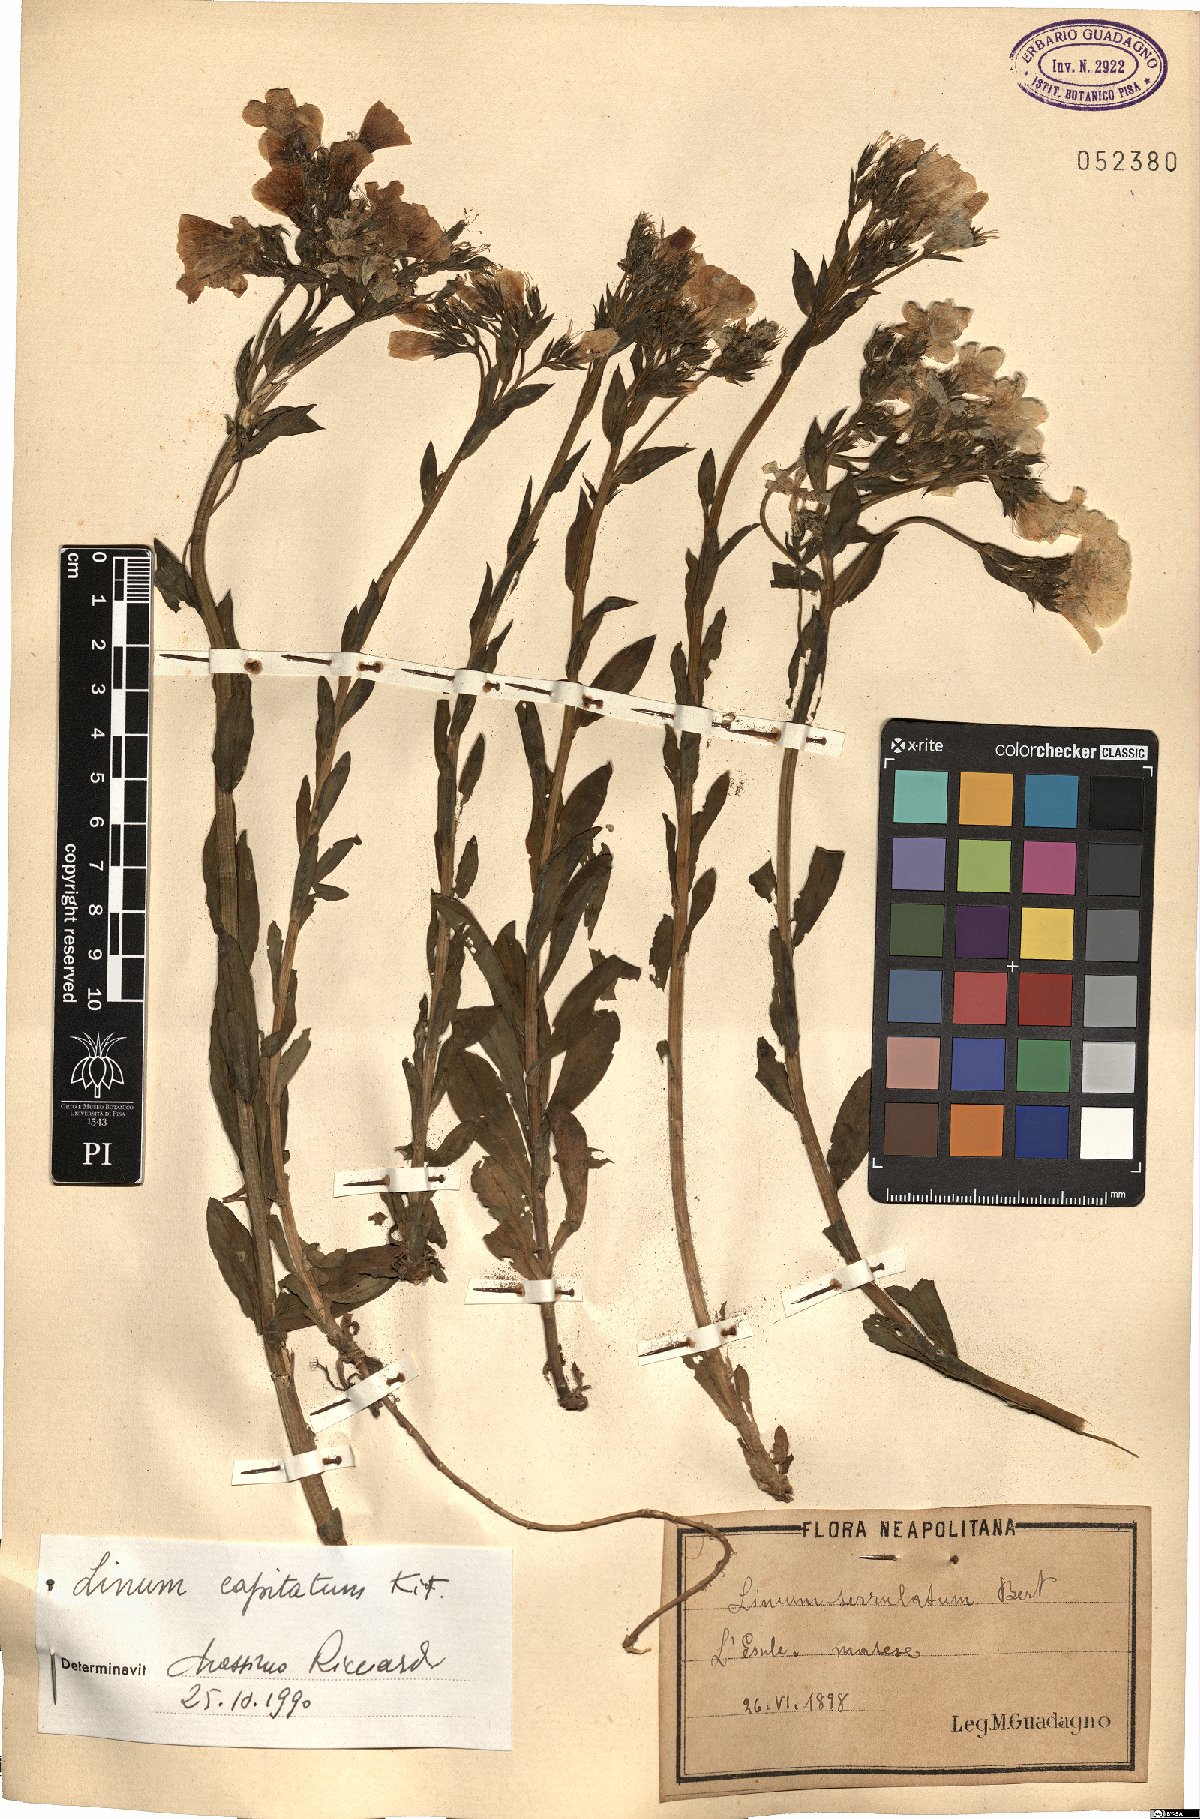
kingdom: Plantae
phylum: Tracheophyta
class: Magnoliopsida
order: Malpighiales
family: Linaceae
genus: Linum
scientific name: Linum capitatum
